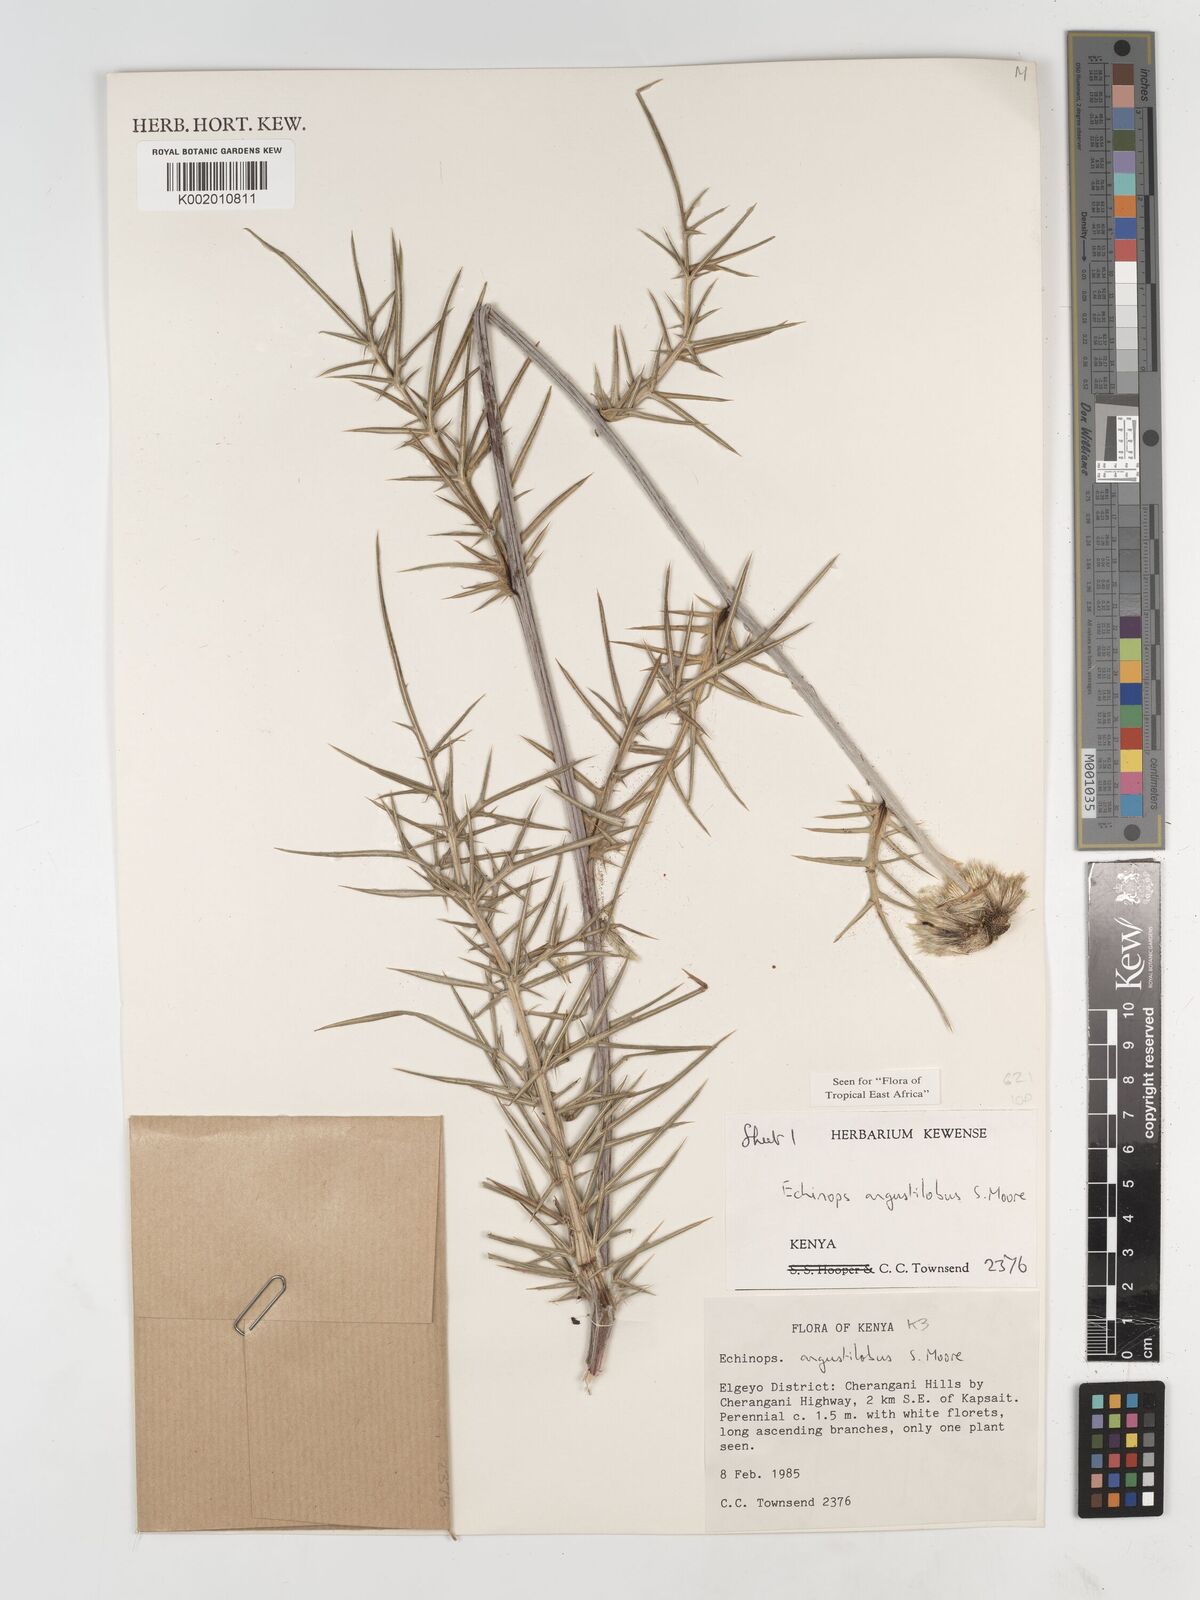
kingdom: Plantae
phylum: Tracheophyta
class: Magnoliopsida
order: Asterales
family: Asteraceae
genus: Echinops
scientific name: Echinops angustilobus
